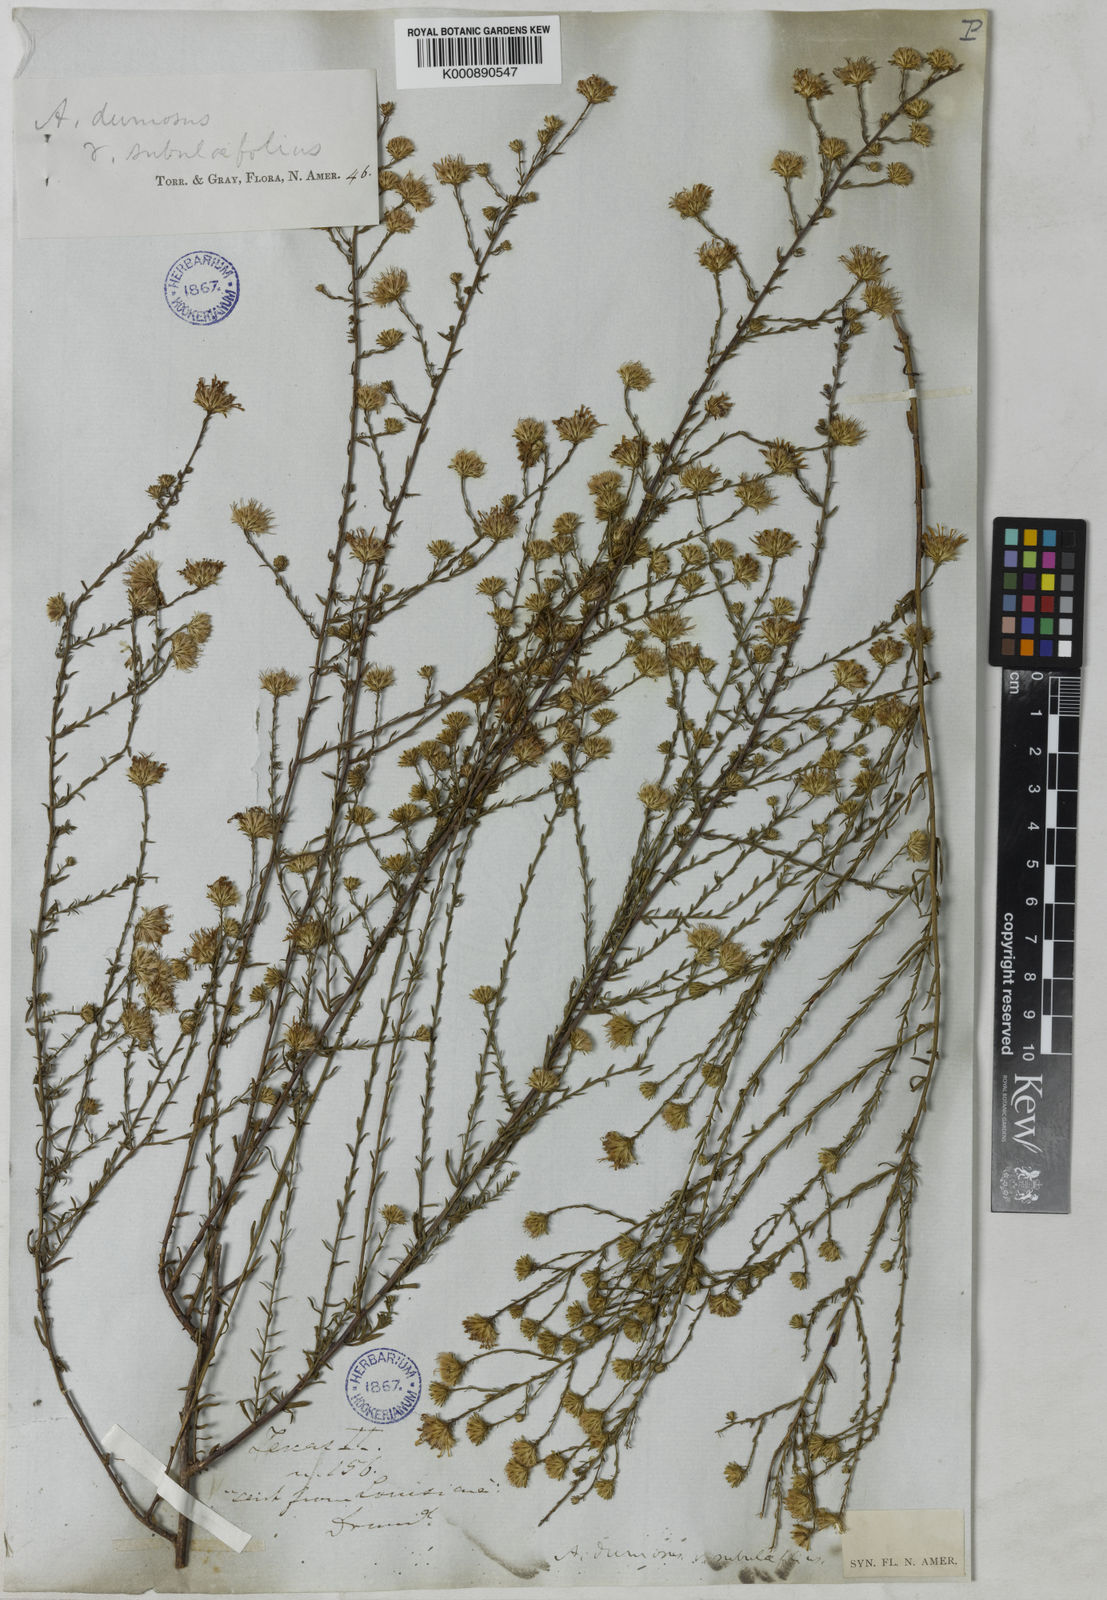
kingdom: Plantae
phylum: Tracheophyta
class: Magnoliopsida
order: Asterales
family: Asteraceae
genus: Symphyotrichum
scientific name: Symphyotrichum dumosum
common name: Bushy aster
